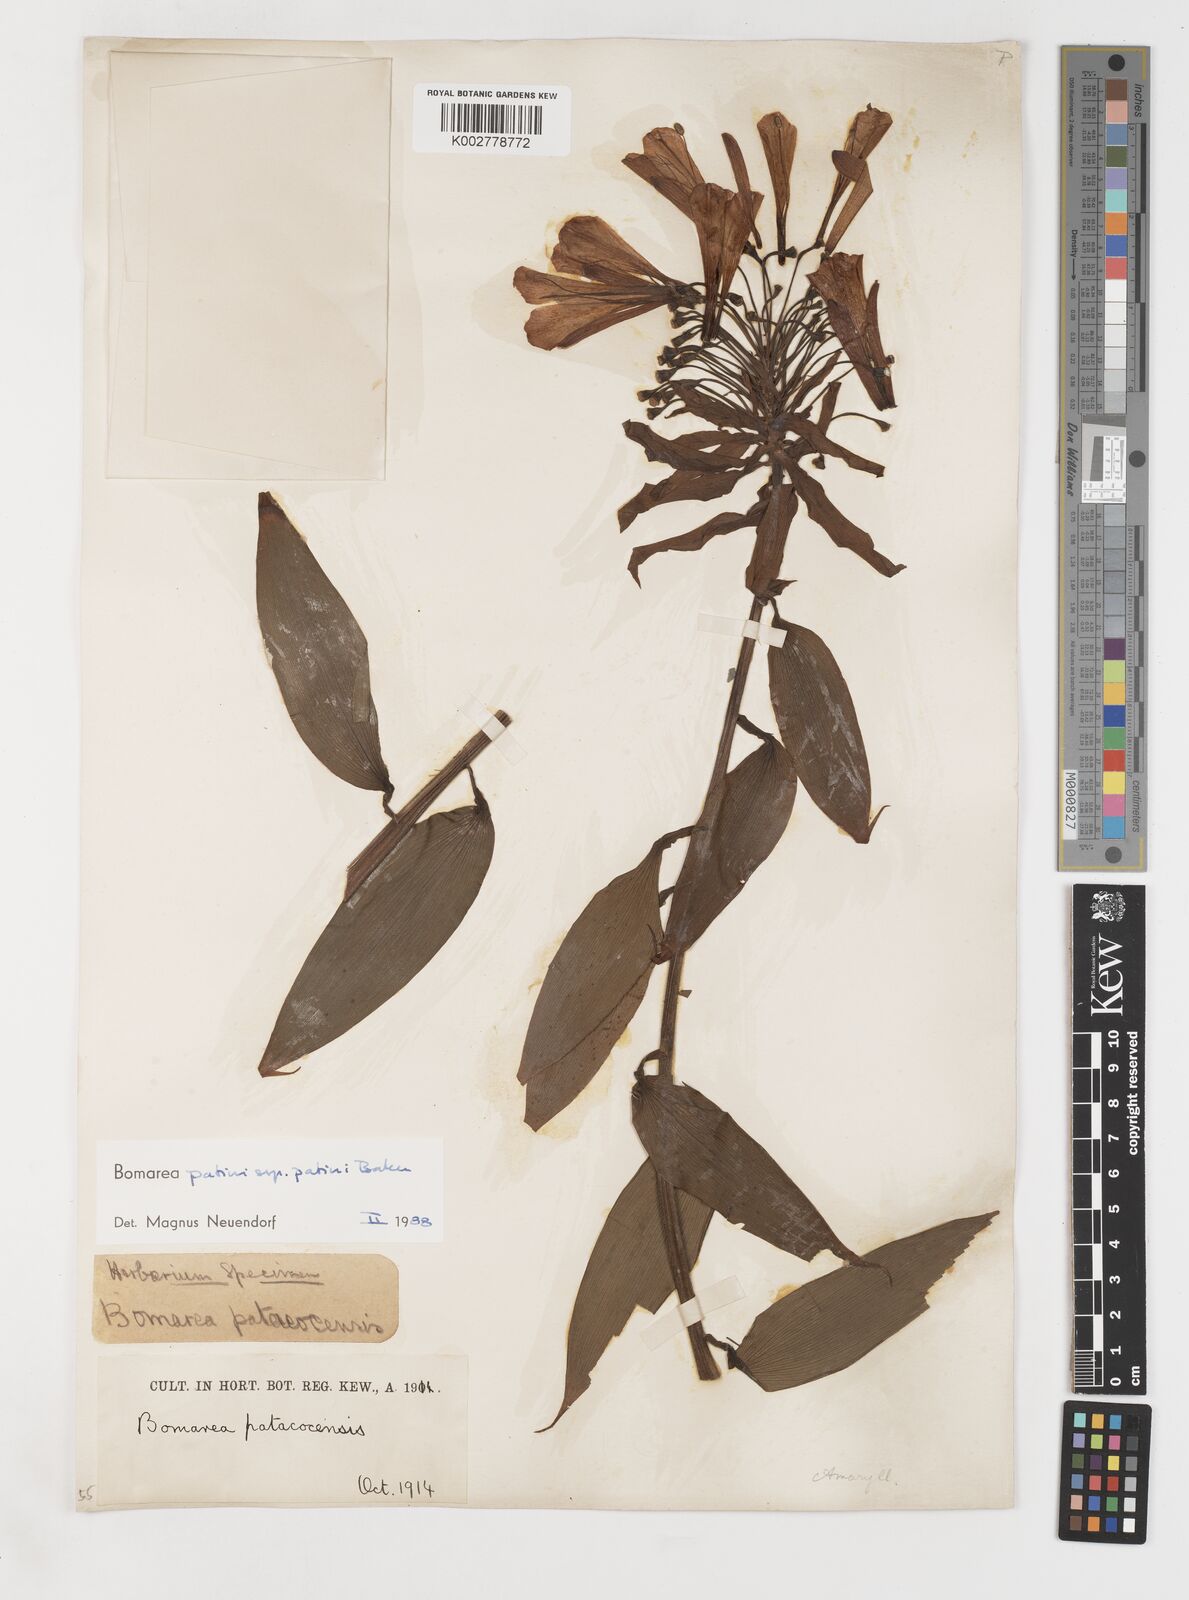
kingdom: Plantae
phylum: Tracheophyta
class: Liliopsida
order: Liliales
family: Alstroemeriaceae
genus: Bomarea
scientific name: Bomarea patinii
